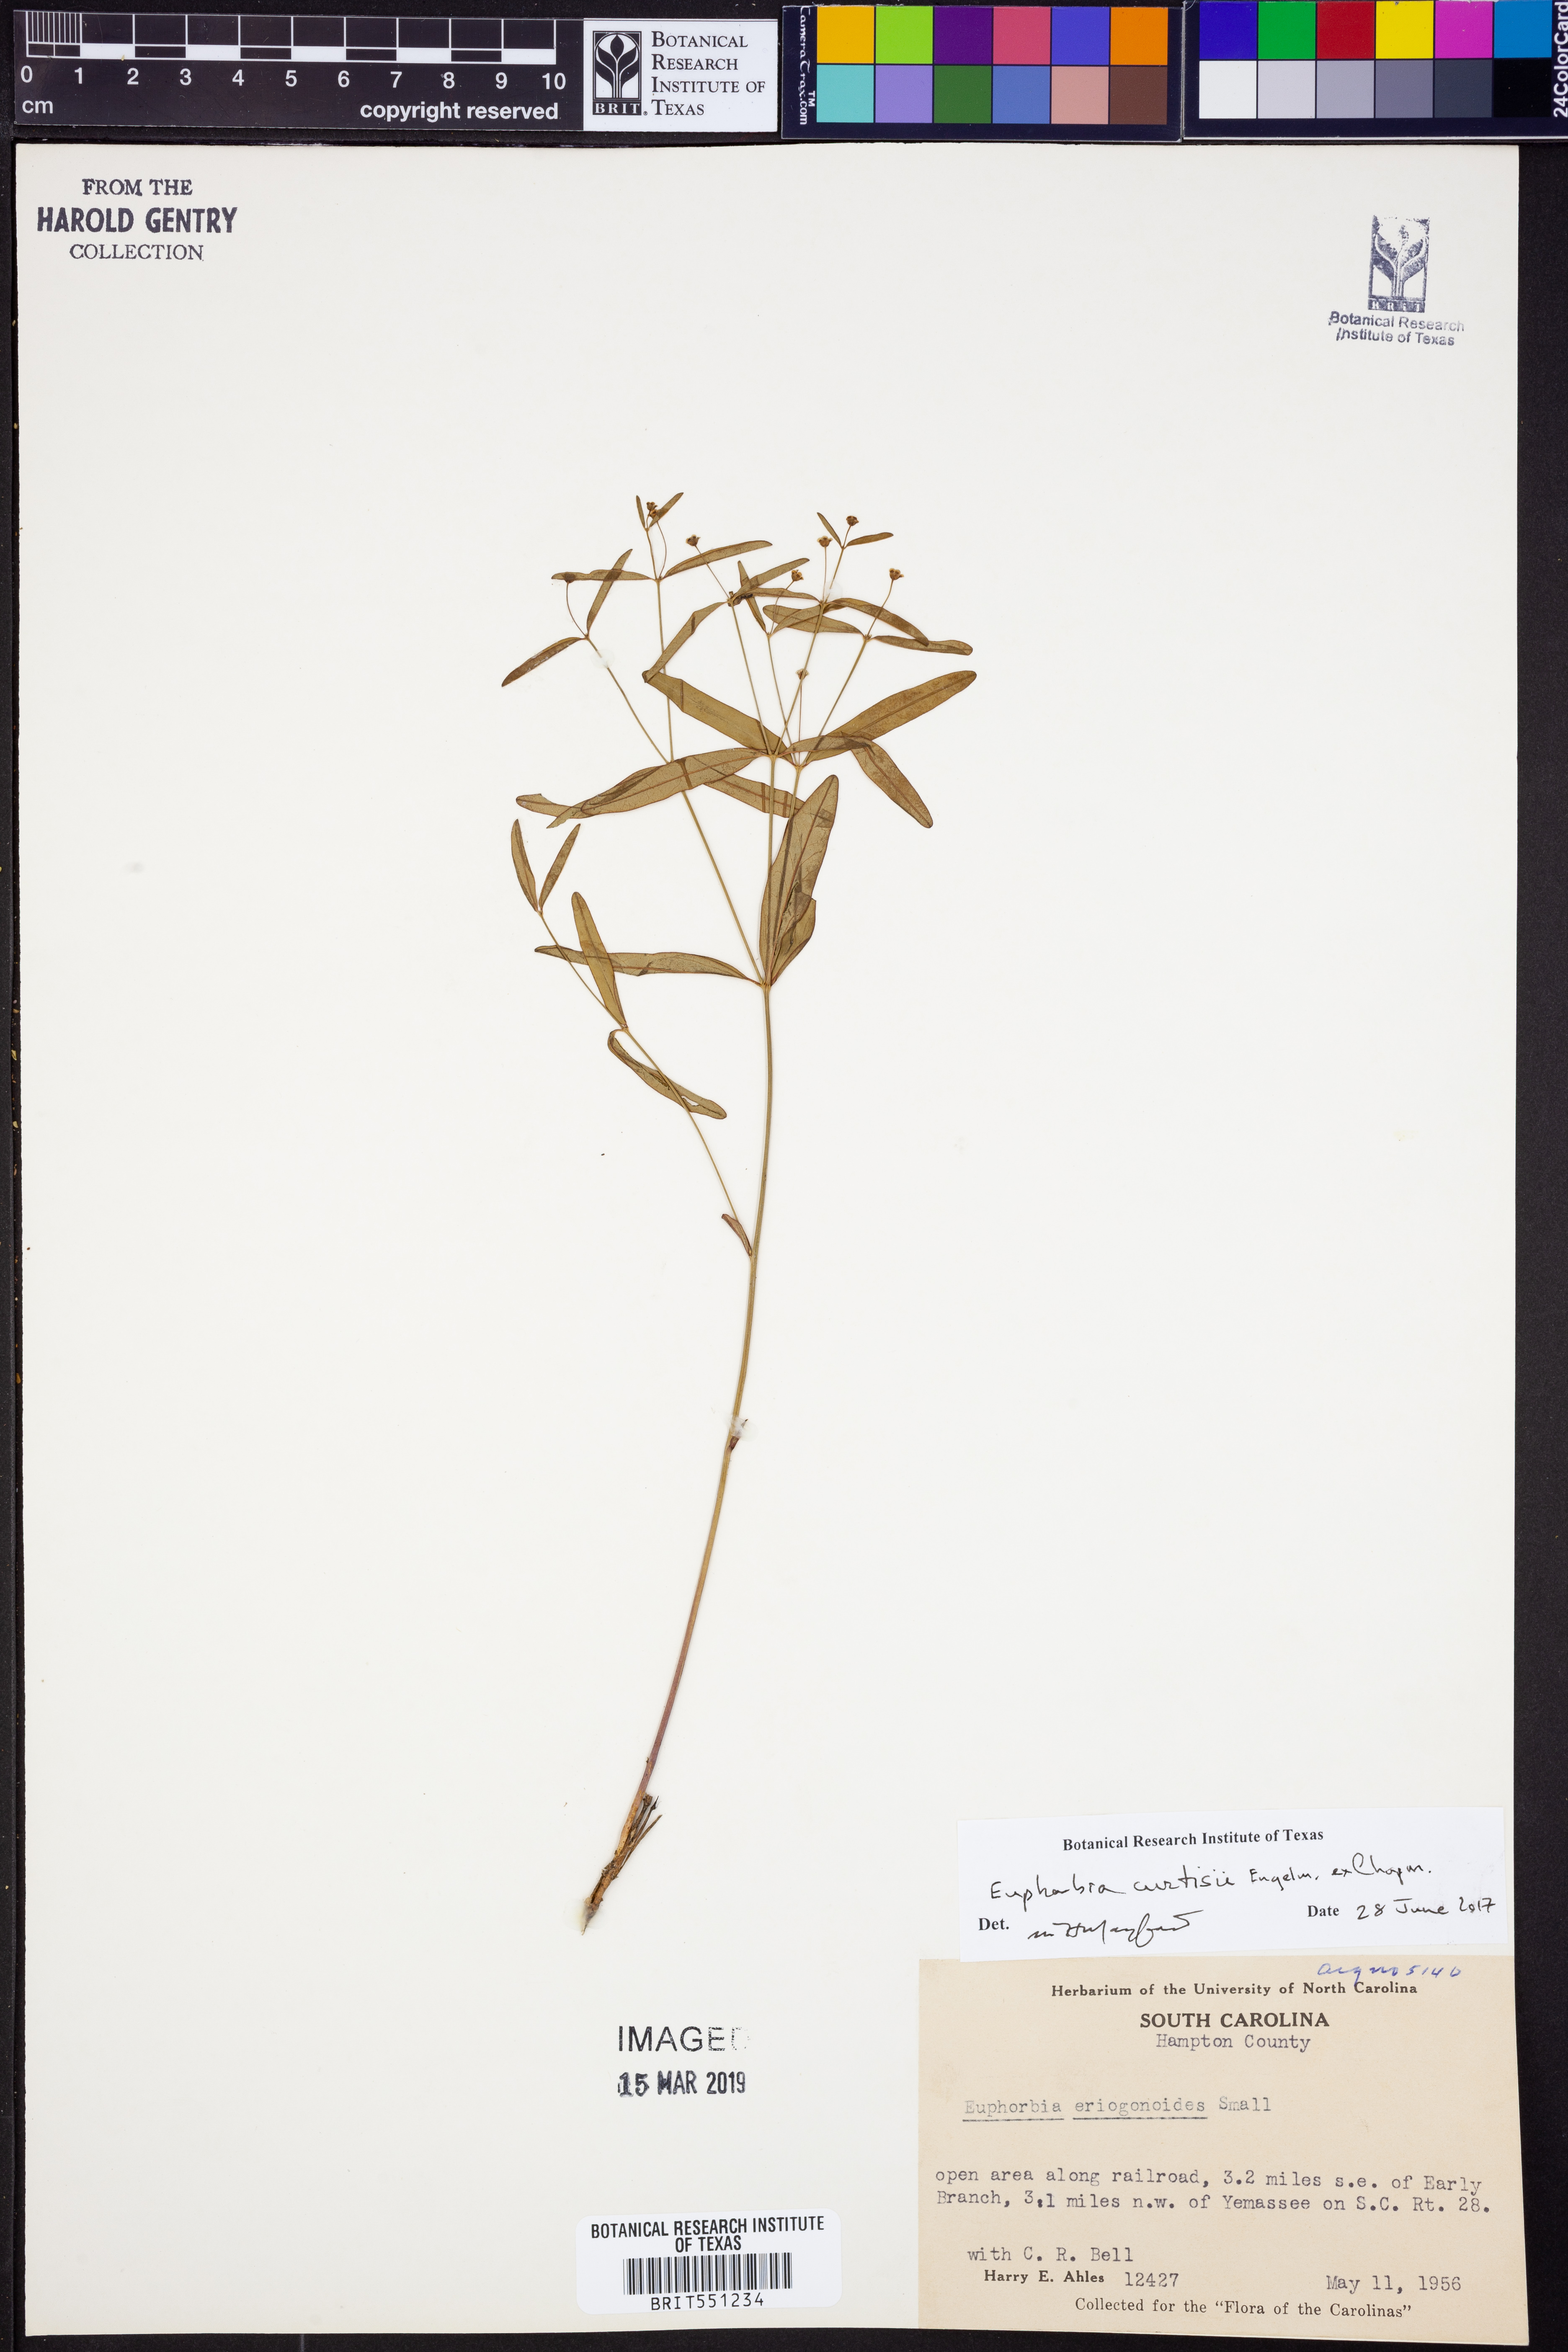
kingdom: Plantae
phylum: Tracheophyta
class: Magnoliopsida
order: Malpighiales
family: Euphorbiaceae
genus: Euphorbia
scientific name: Euphorbia curtisii
